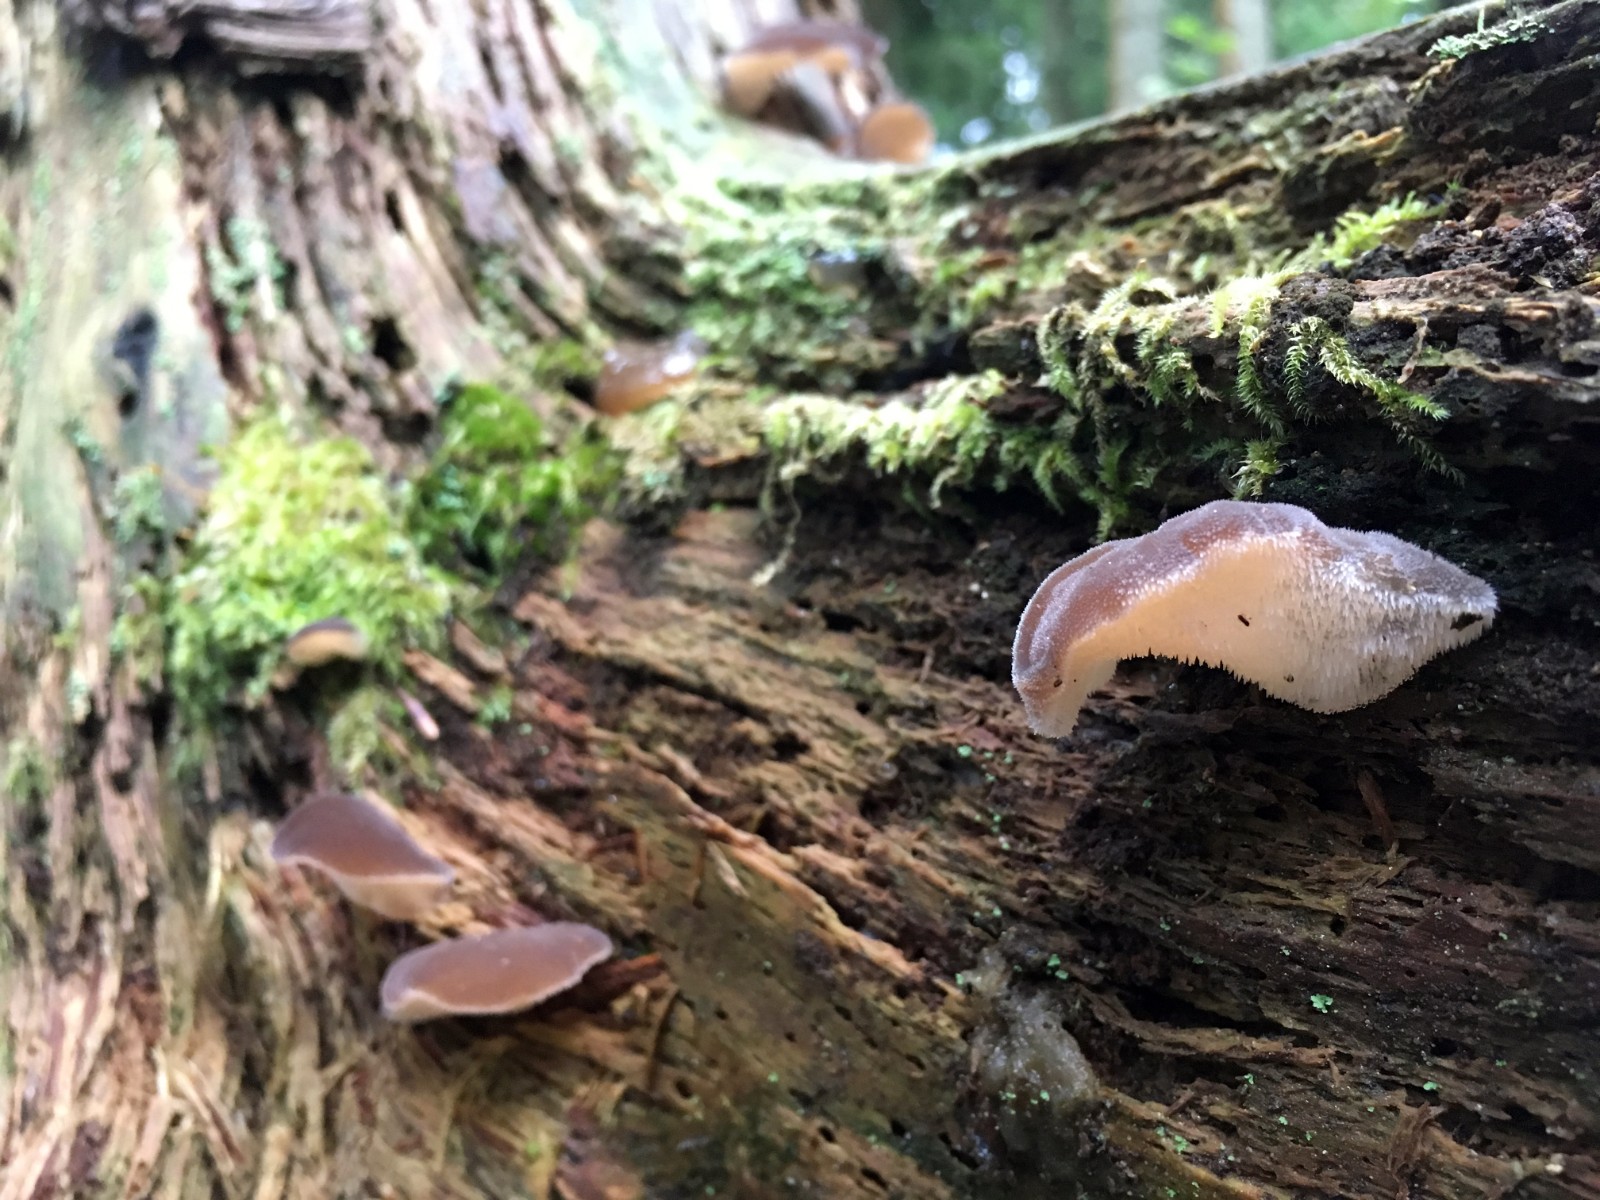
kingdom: Fungi
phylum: Basidiomycota
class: Agaricomycetes
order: Auriculariales
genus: Pseudohydnum
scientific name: Pseudohydnum gelatinosum
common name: bævretand
